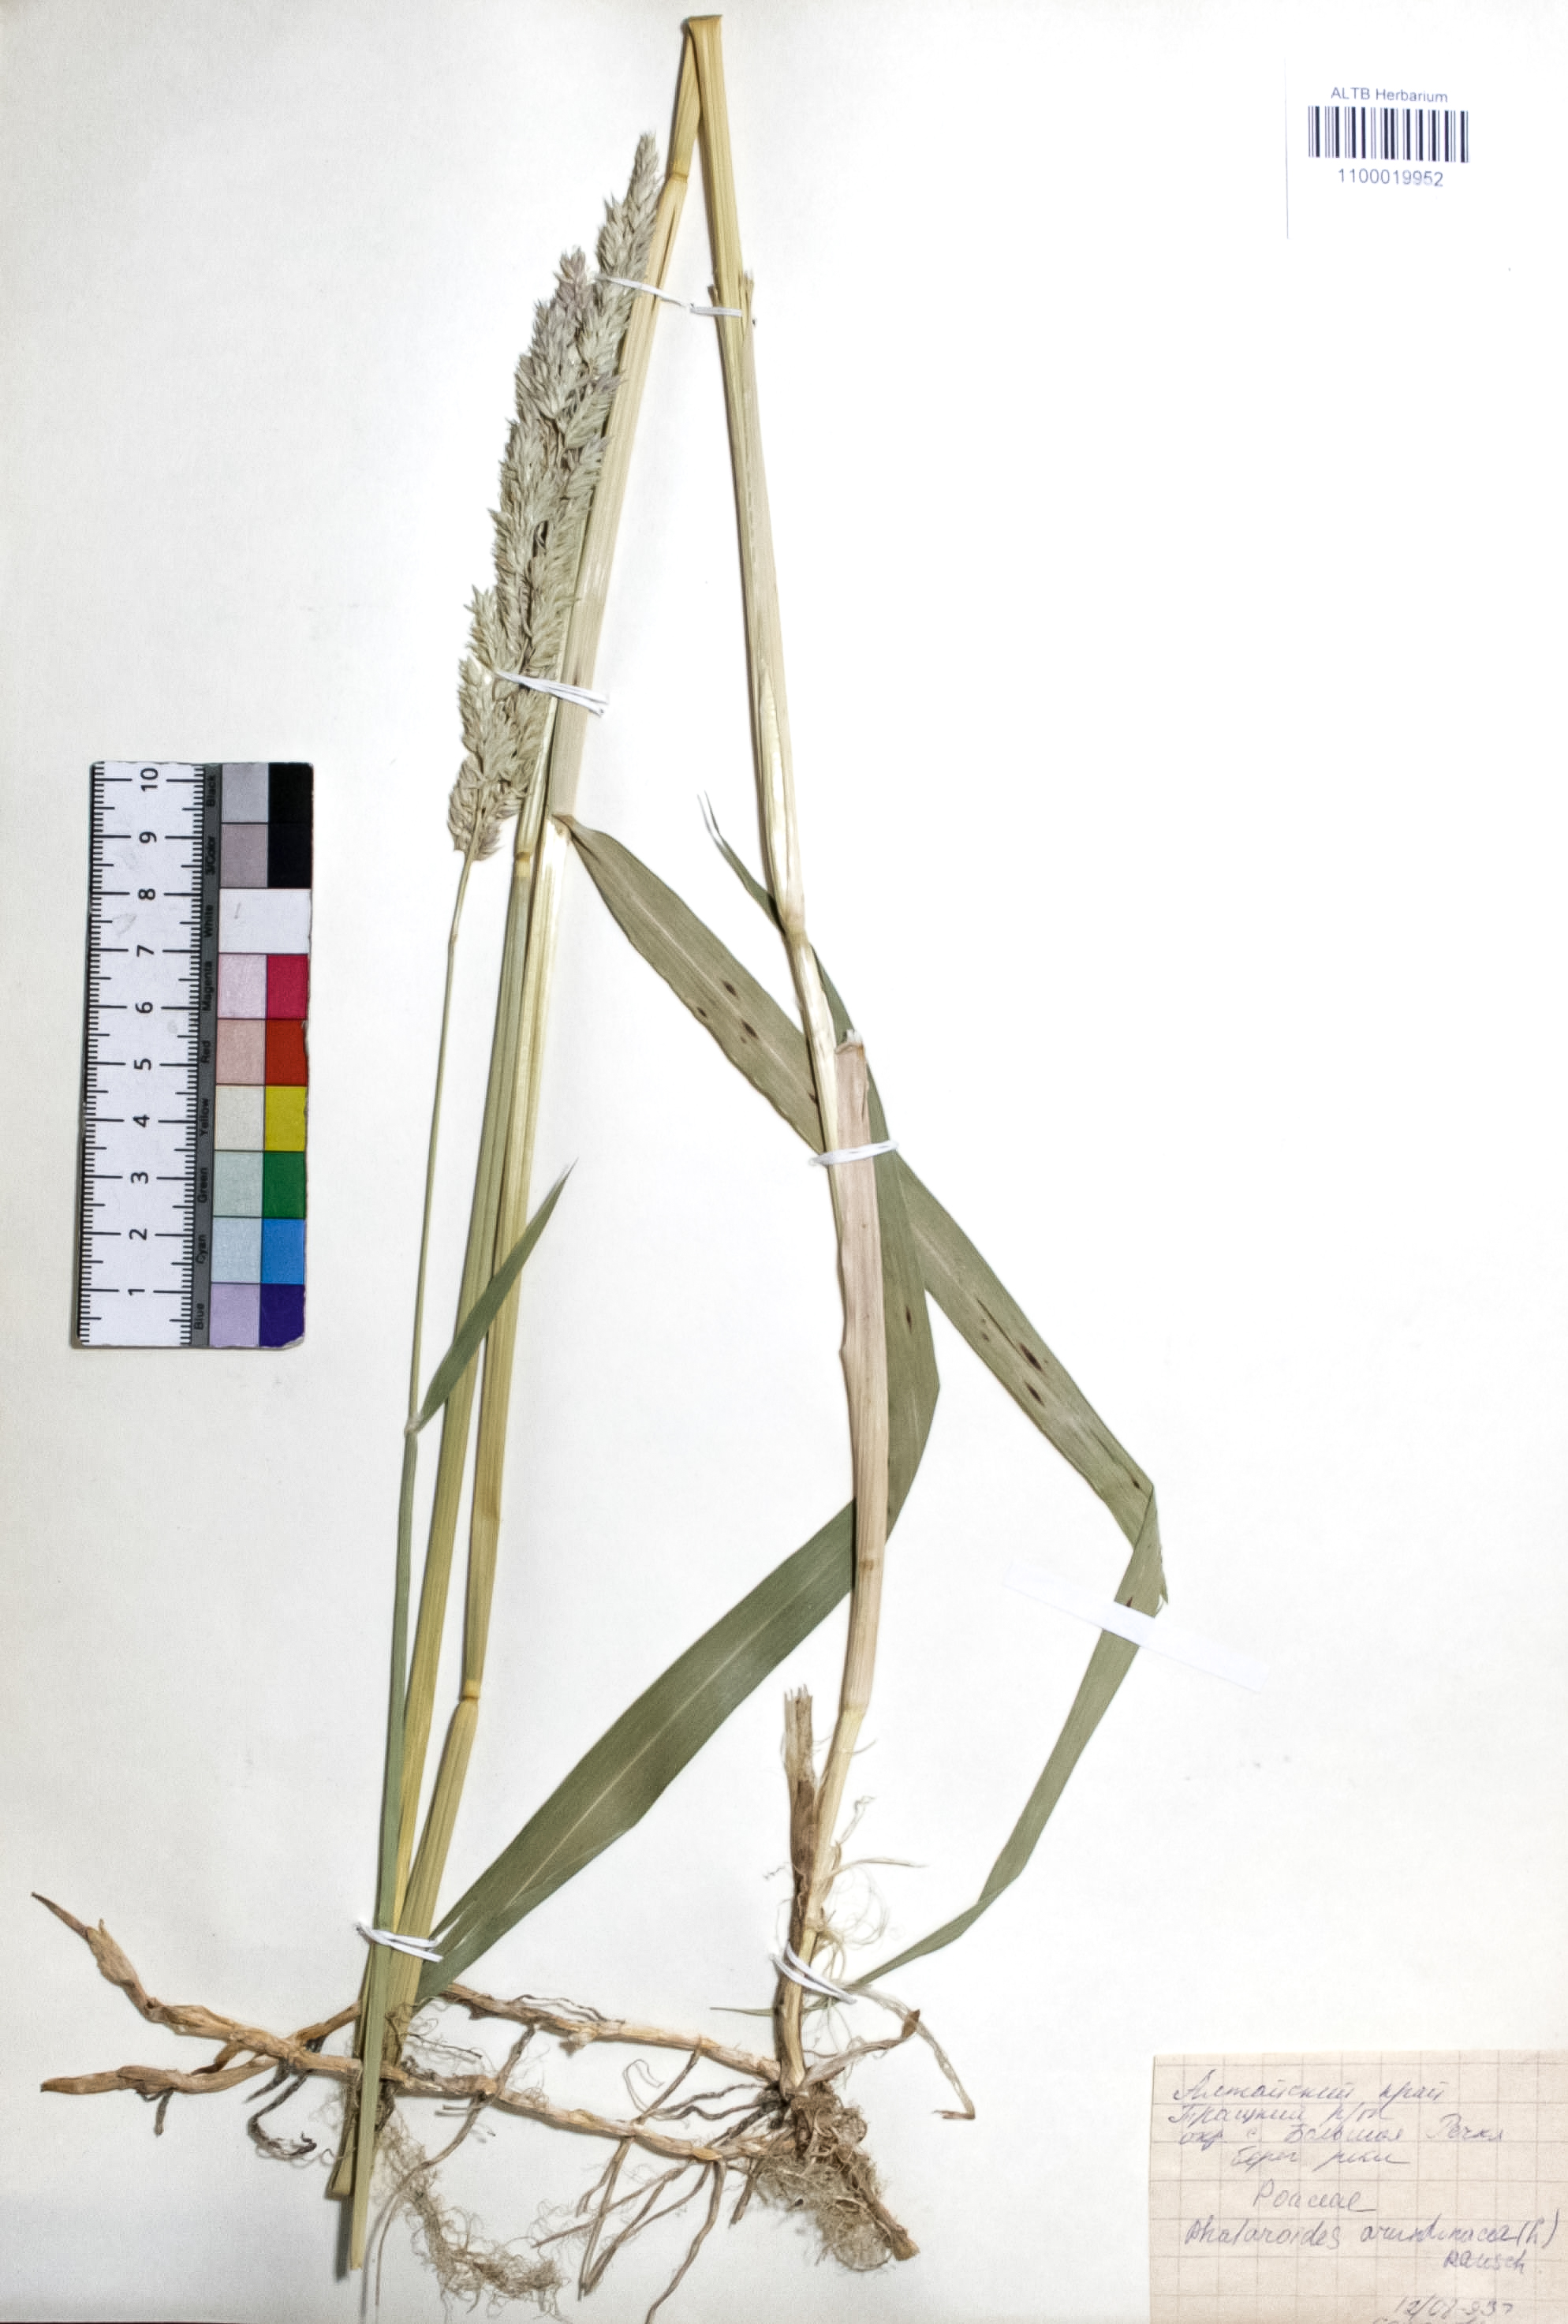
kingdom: Plantae
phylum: Tracheophyta
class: Liliopsida
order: Poales
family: Poaceae
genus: Phalaris
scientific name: Phalaris arundinacea
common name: Reed canary-grass
